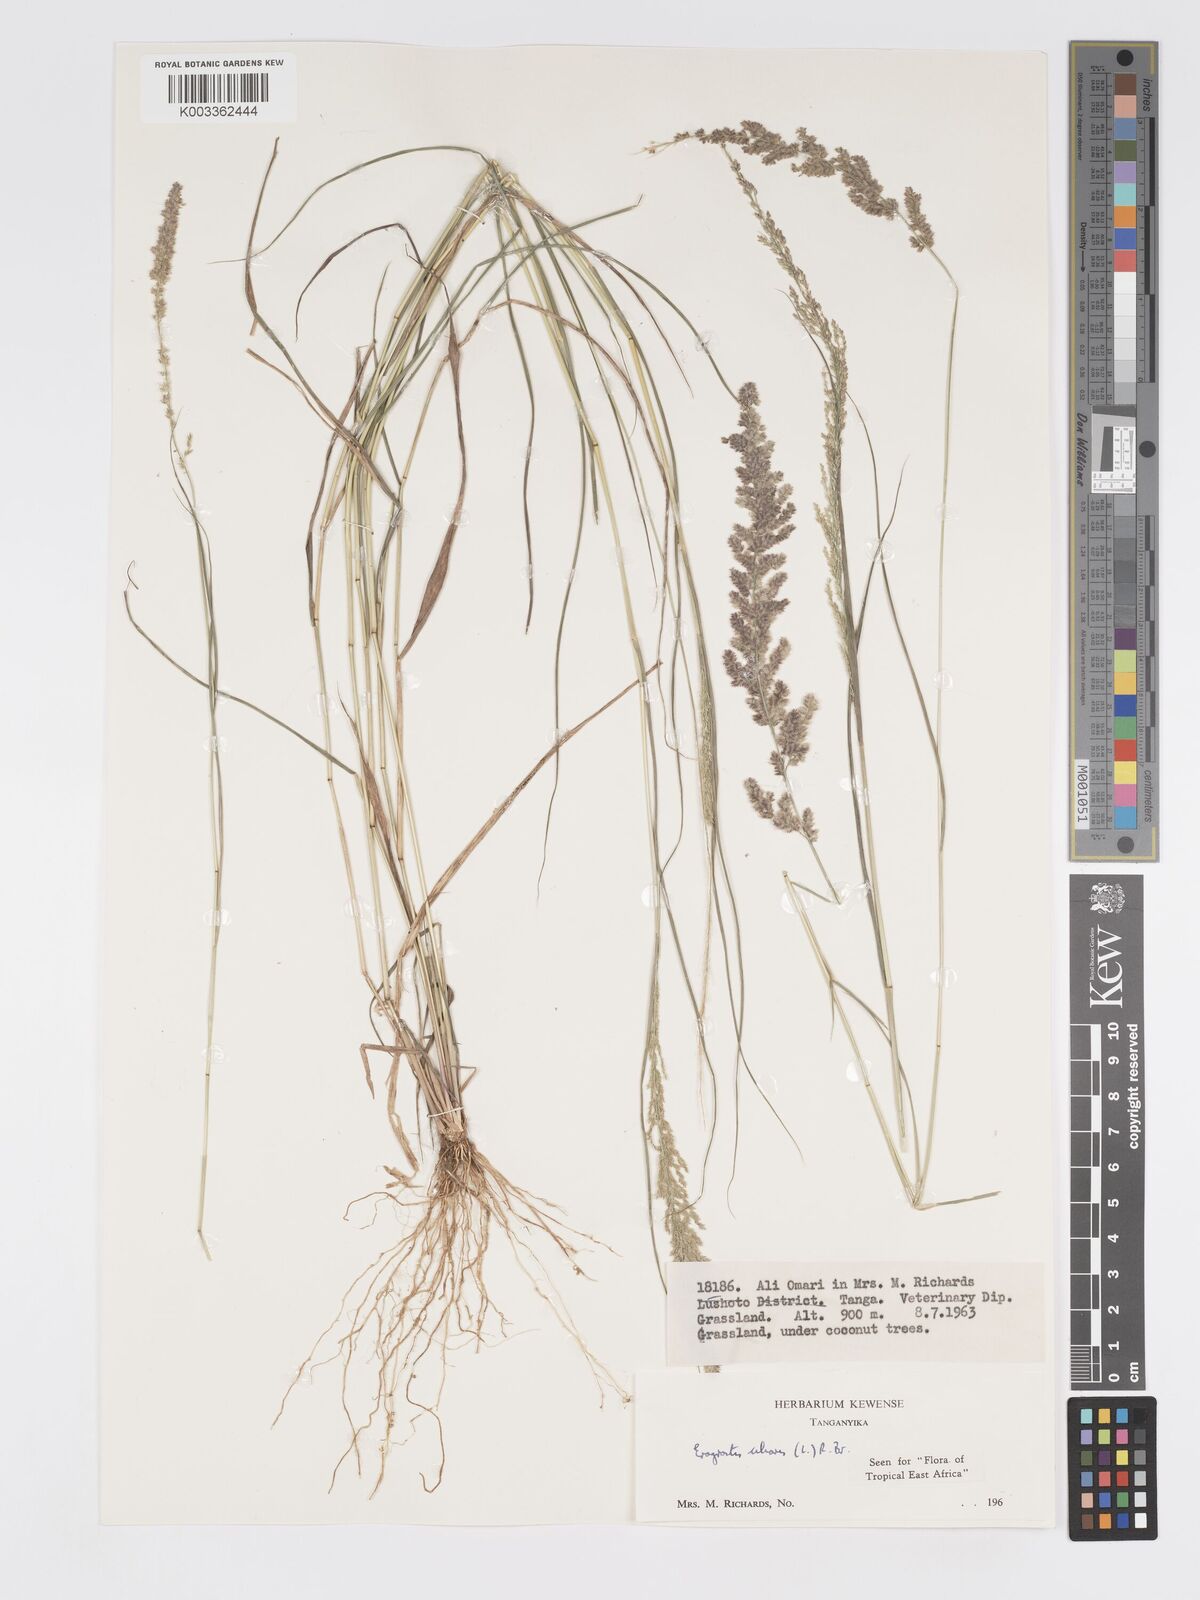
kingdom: Plantae
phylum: Tracheophyta
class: Liliopsida
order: Poales
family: Poaceae
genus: Eragrostis
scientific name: Eragrostis ciliaris
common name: Gophertail lovegrass
